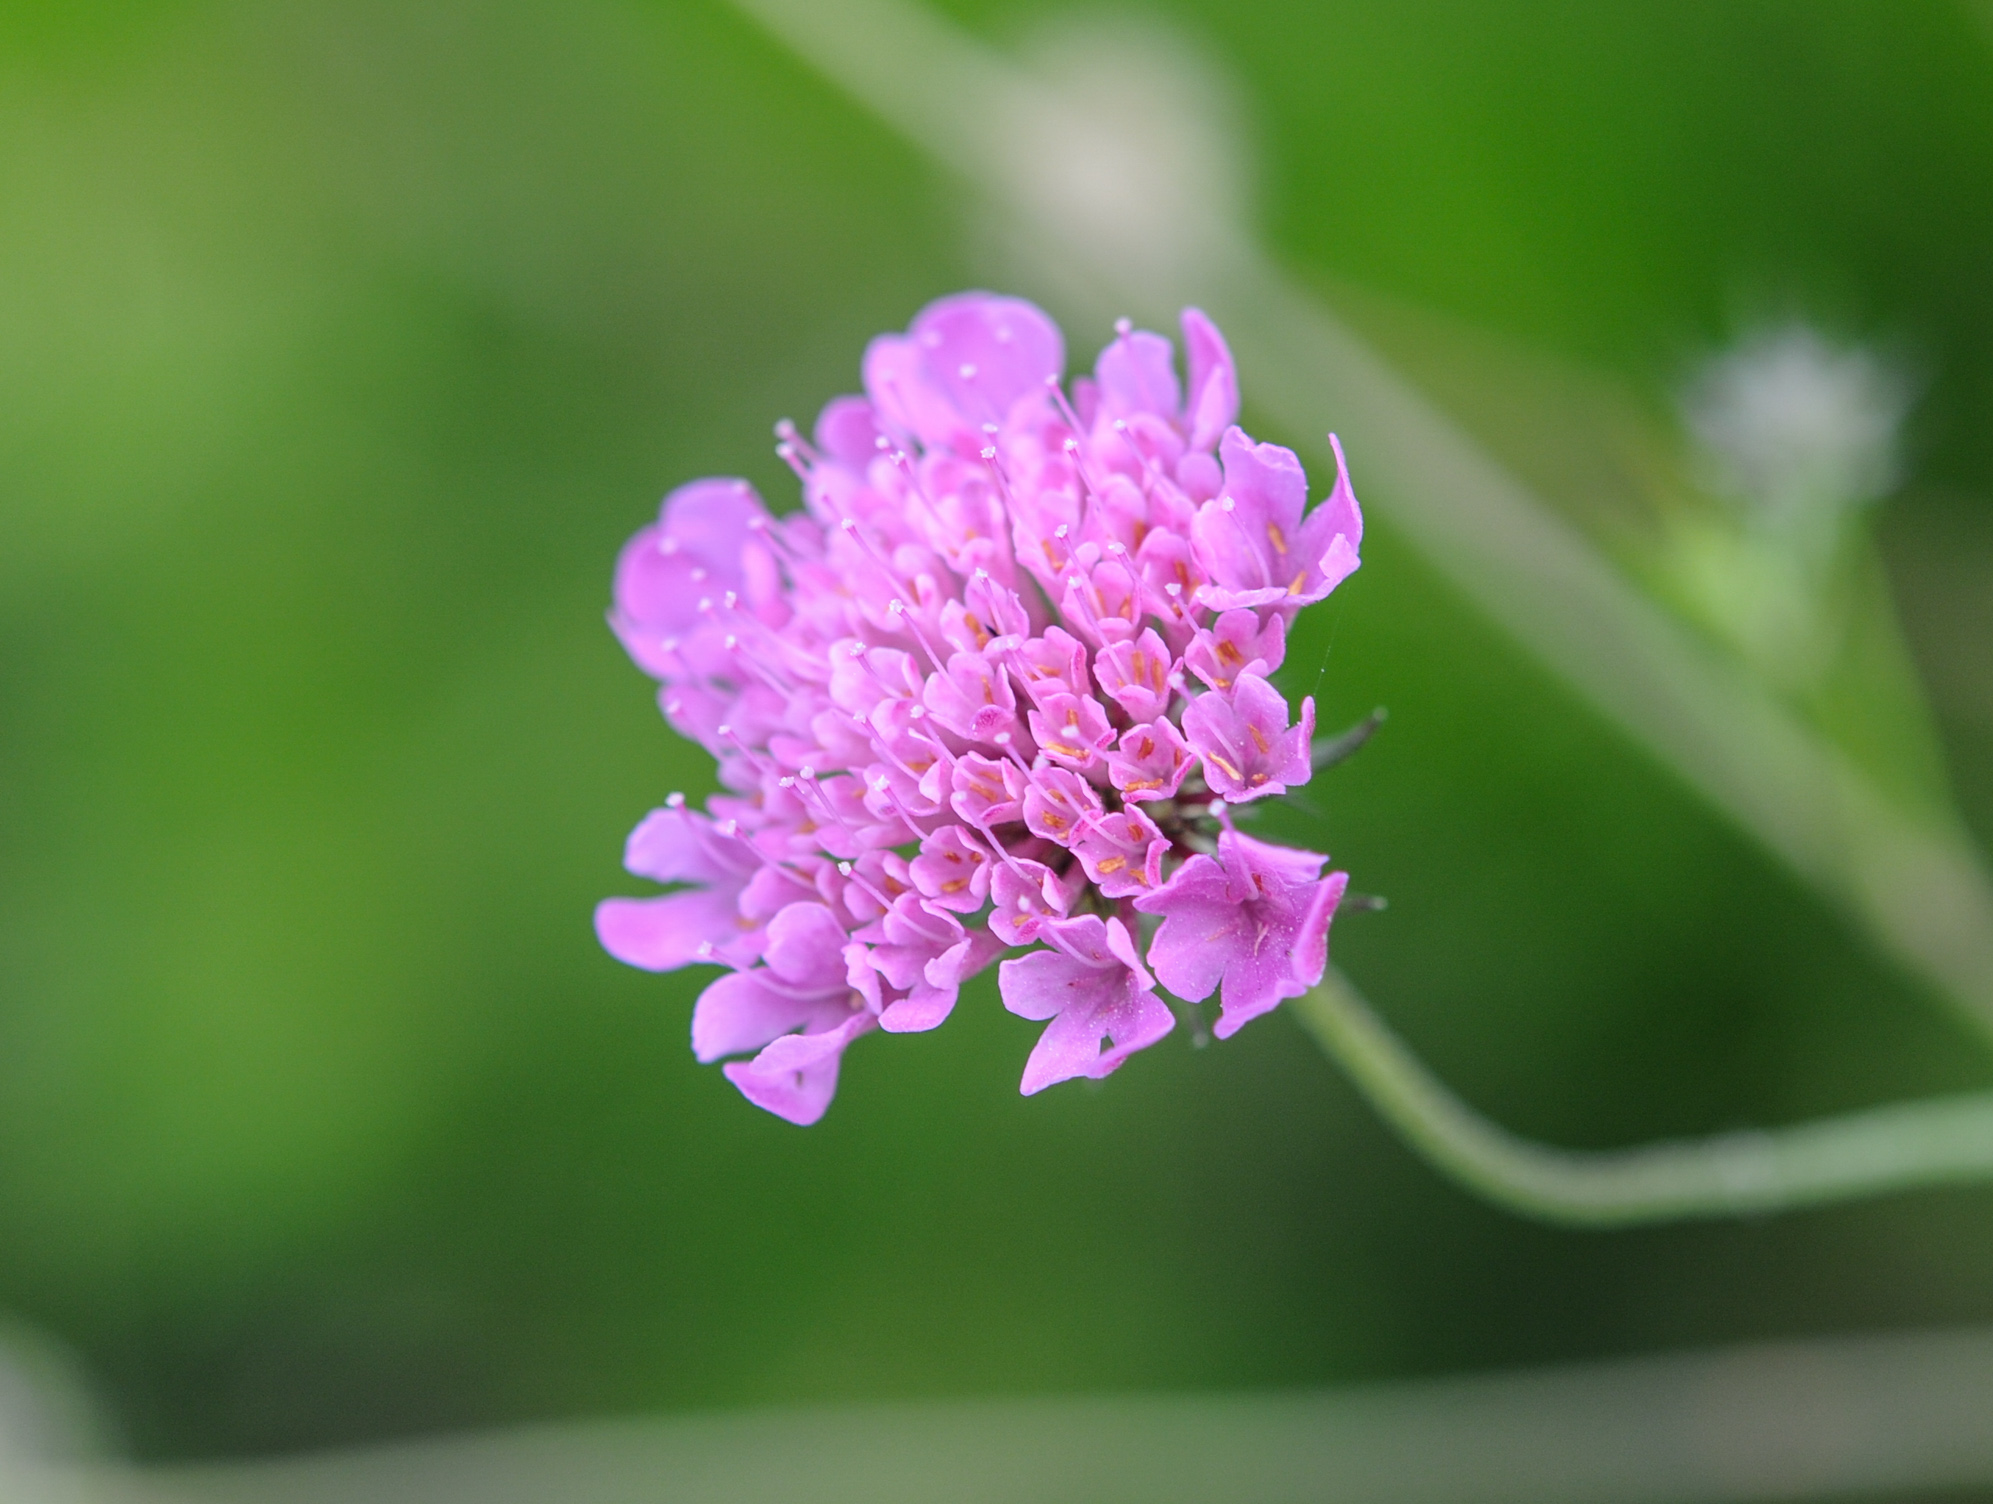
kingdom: Plantae
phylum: Tracheophyta
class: Magnoliopsida
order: Dipsacales
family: Caprifoliaceae
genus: Scabiosa
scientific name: Scabiosa columbaria
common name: Small scabious
